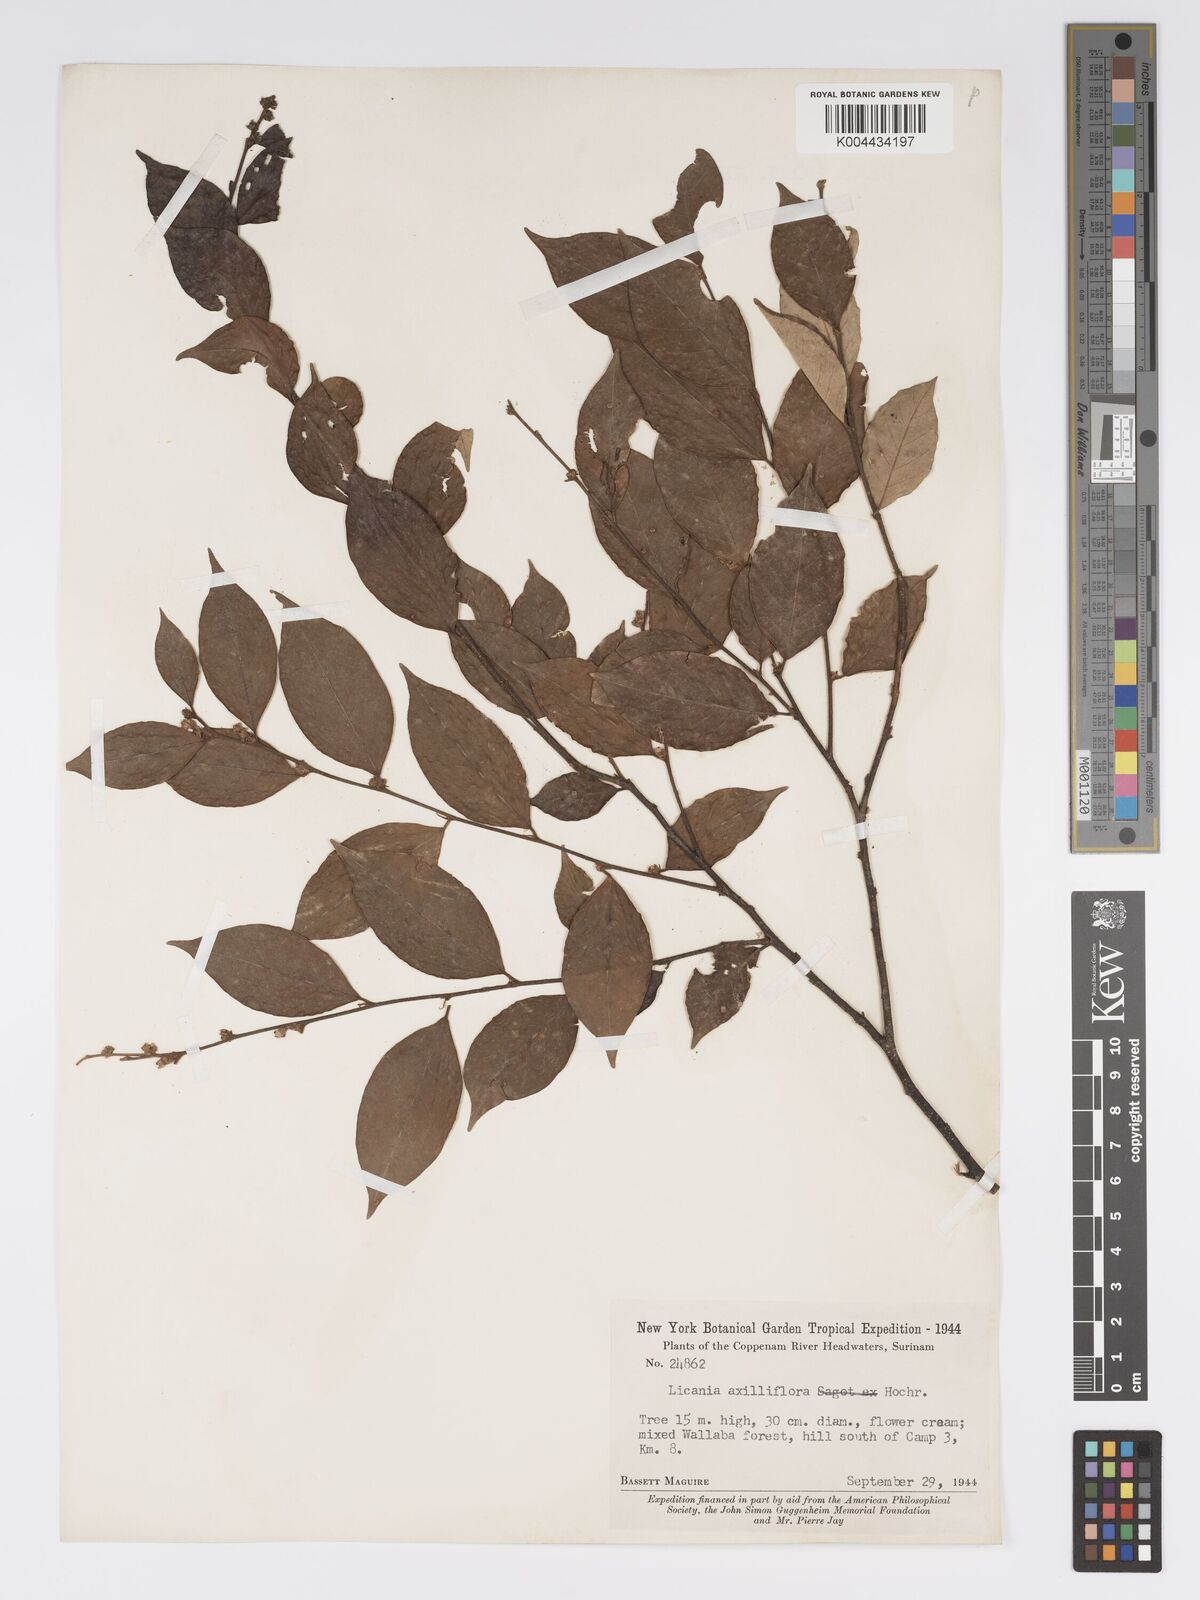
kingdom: Plantae
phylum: Tracheophyta
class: Magnoliopsida
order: Malpighiales
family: Chrysobalanaceae
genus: Licania
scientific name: Licania leptostachya
